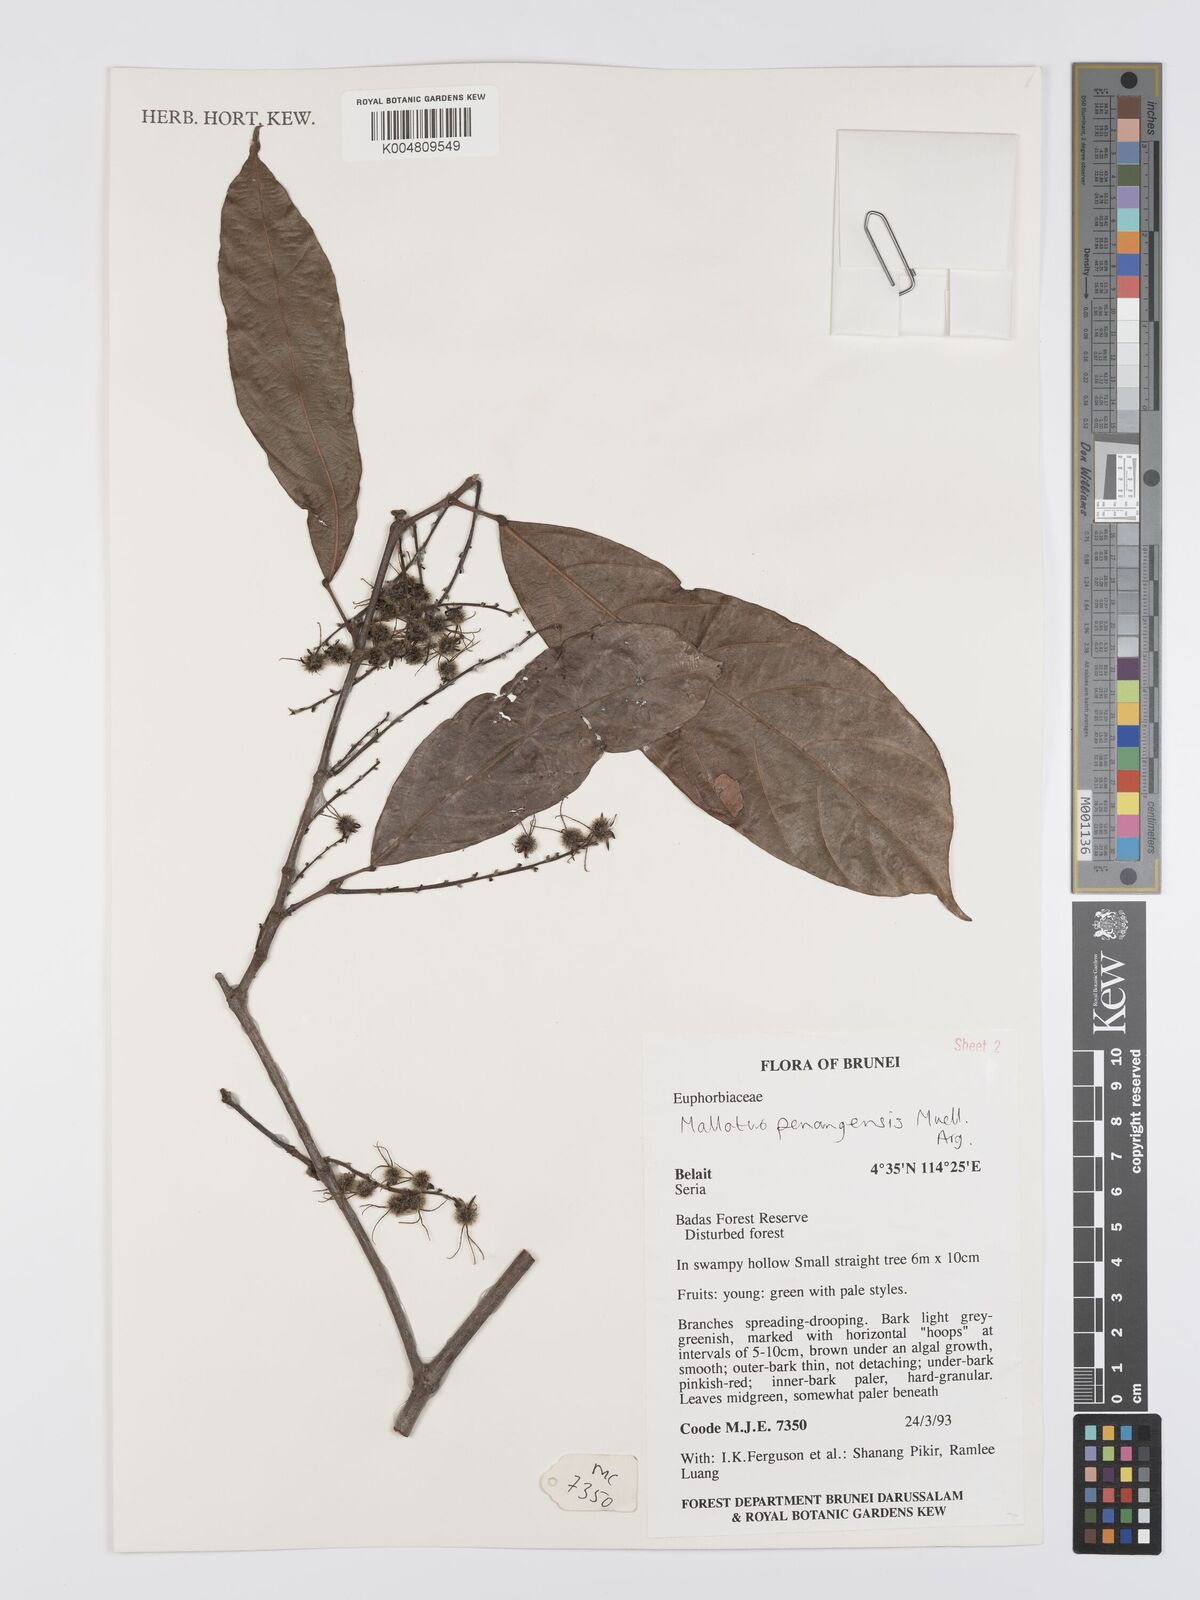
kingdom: Plantae
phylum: Tracheophyta
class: Magnoliopsida
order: Malpighiales
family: Euphorbiaceae
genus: Hancea
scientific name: Hancea penangensis
